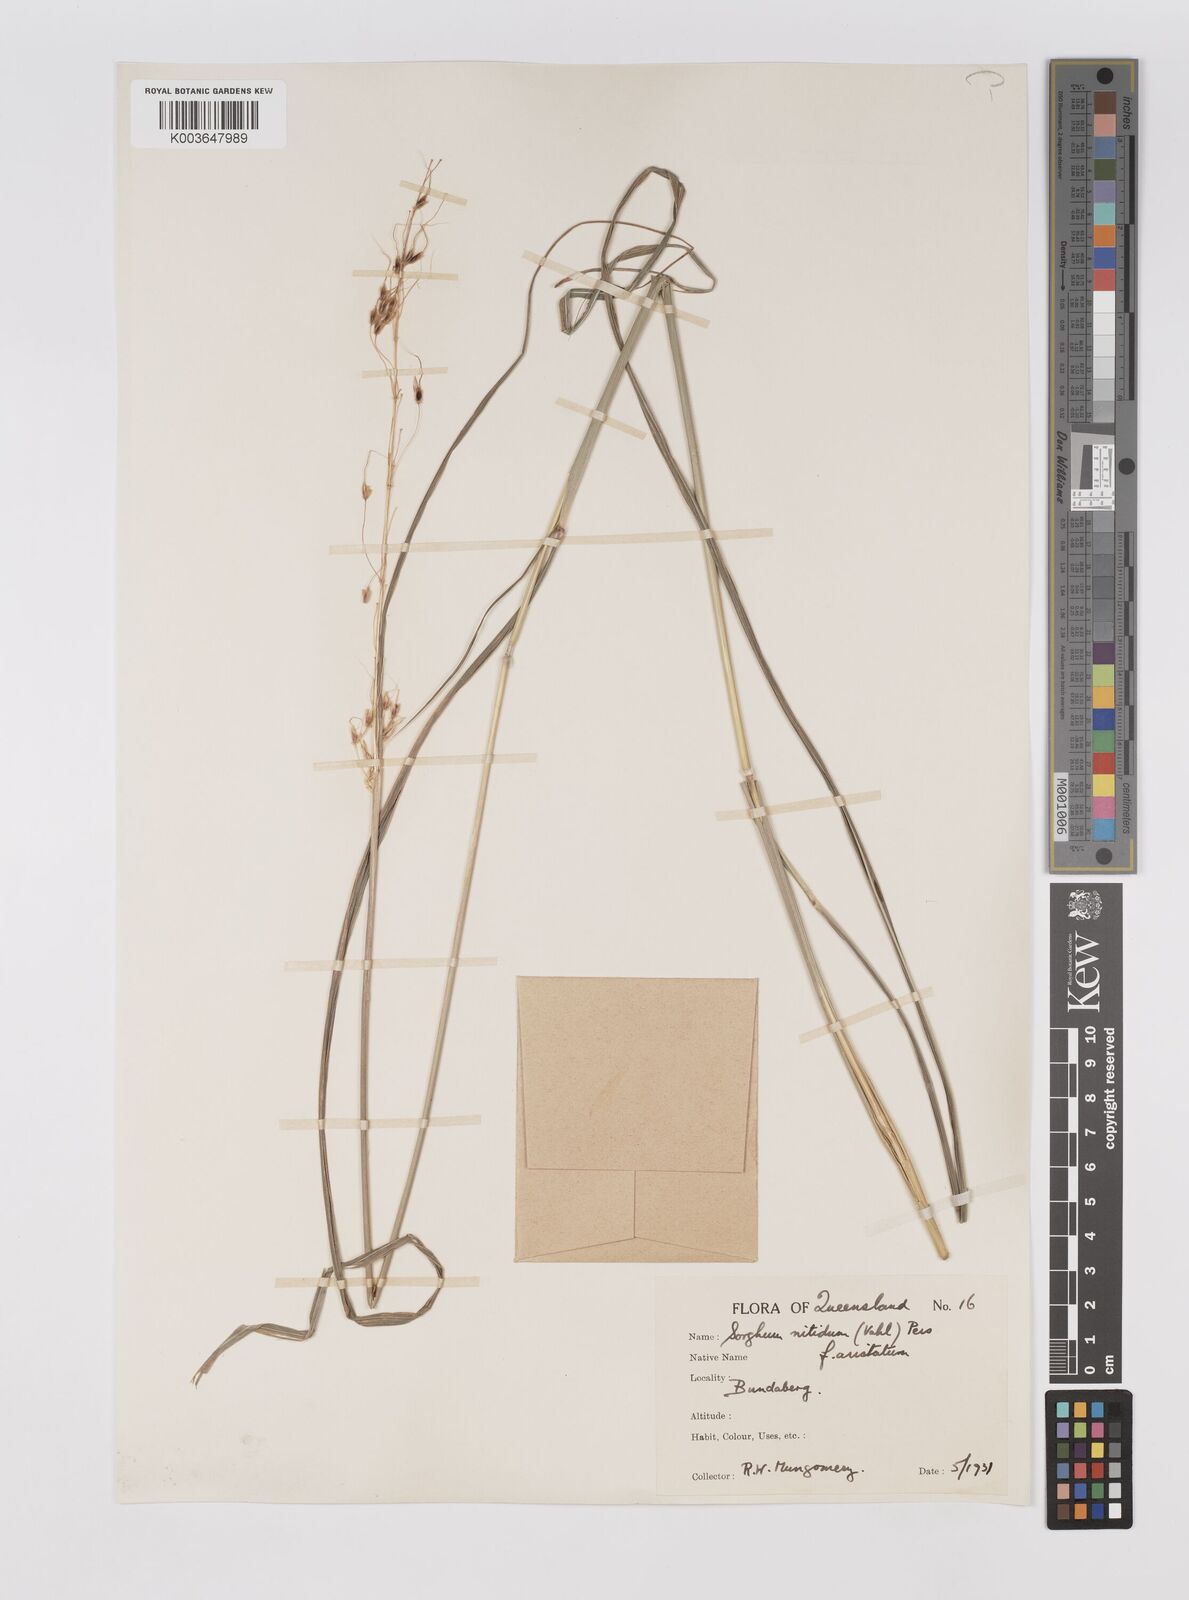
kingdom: Plantae
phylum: Tracheophyta
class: Liliopsida
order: Poales
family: Poaceae
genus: Sorghum
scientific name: Sorghum nitidum
